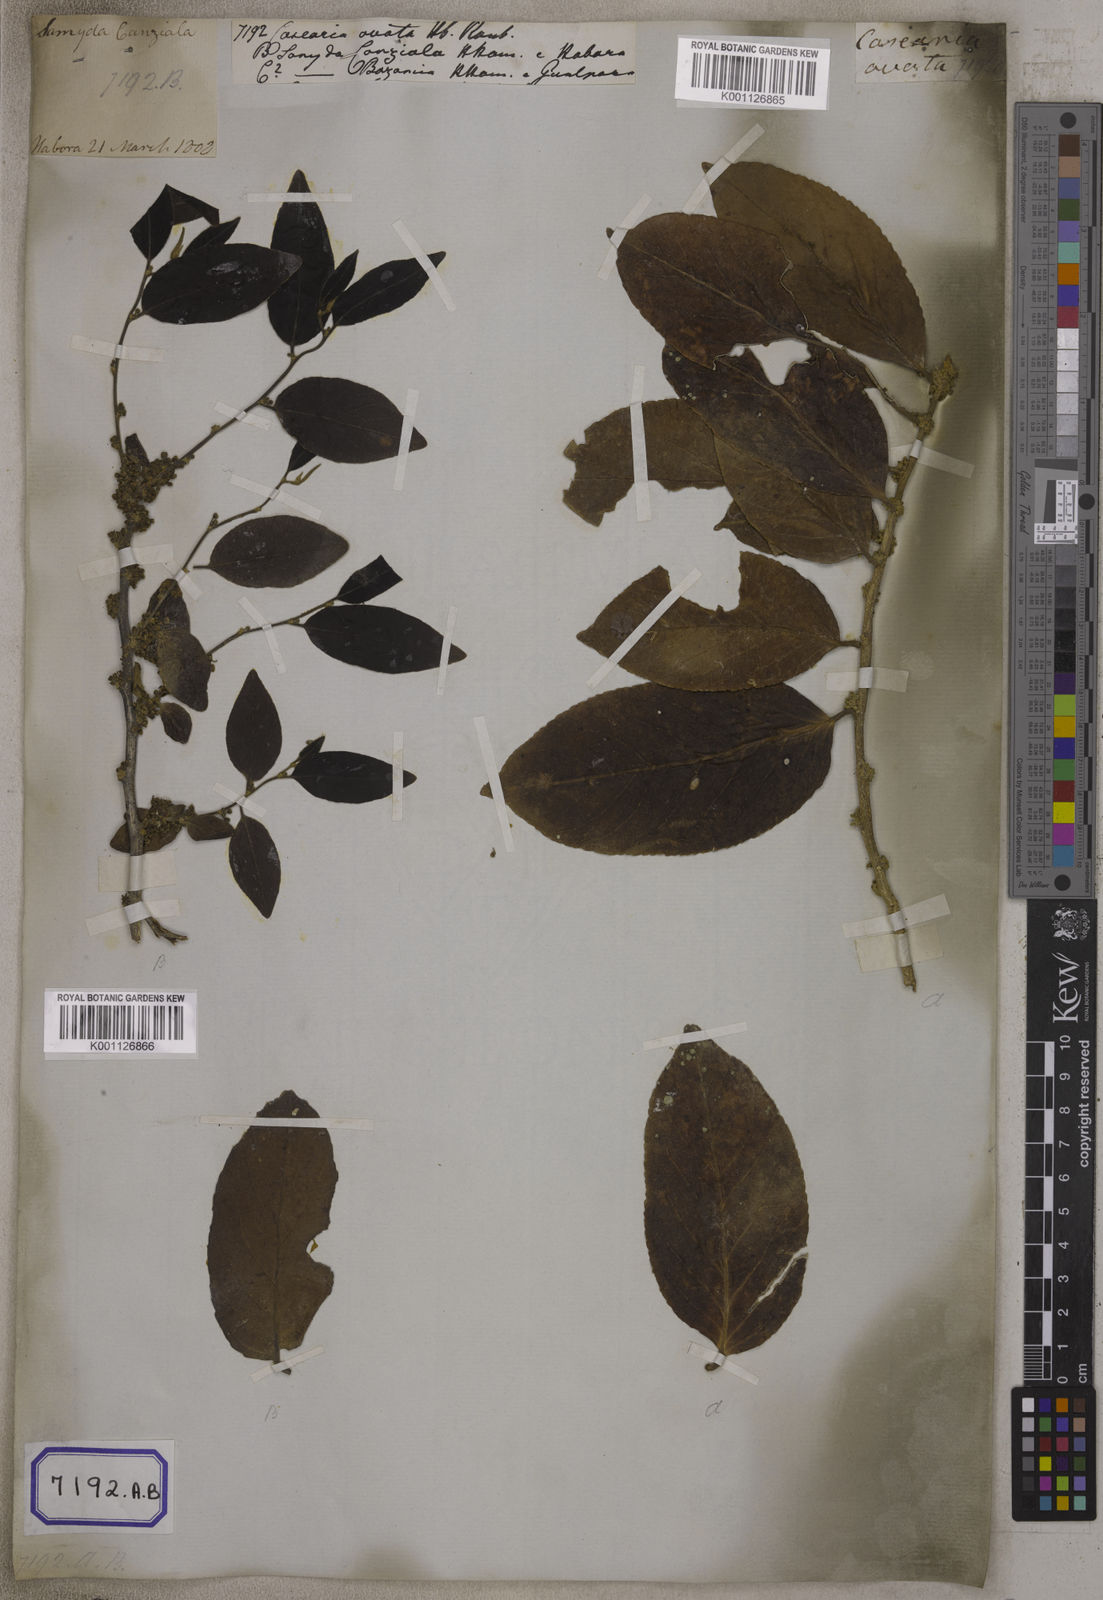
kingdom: Plantae
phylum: Tracheophyta
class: Magnoliopsida
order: Malpighiales
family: Salicaceae
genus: Casearia
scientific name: Casearia
